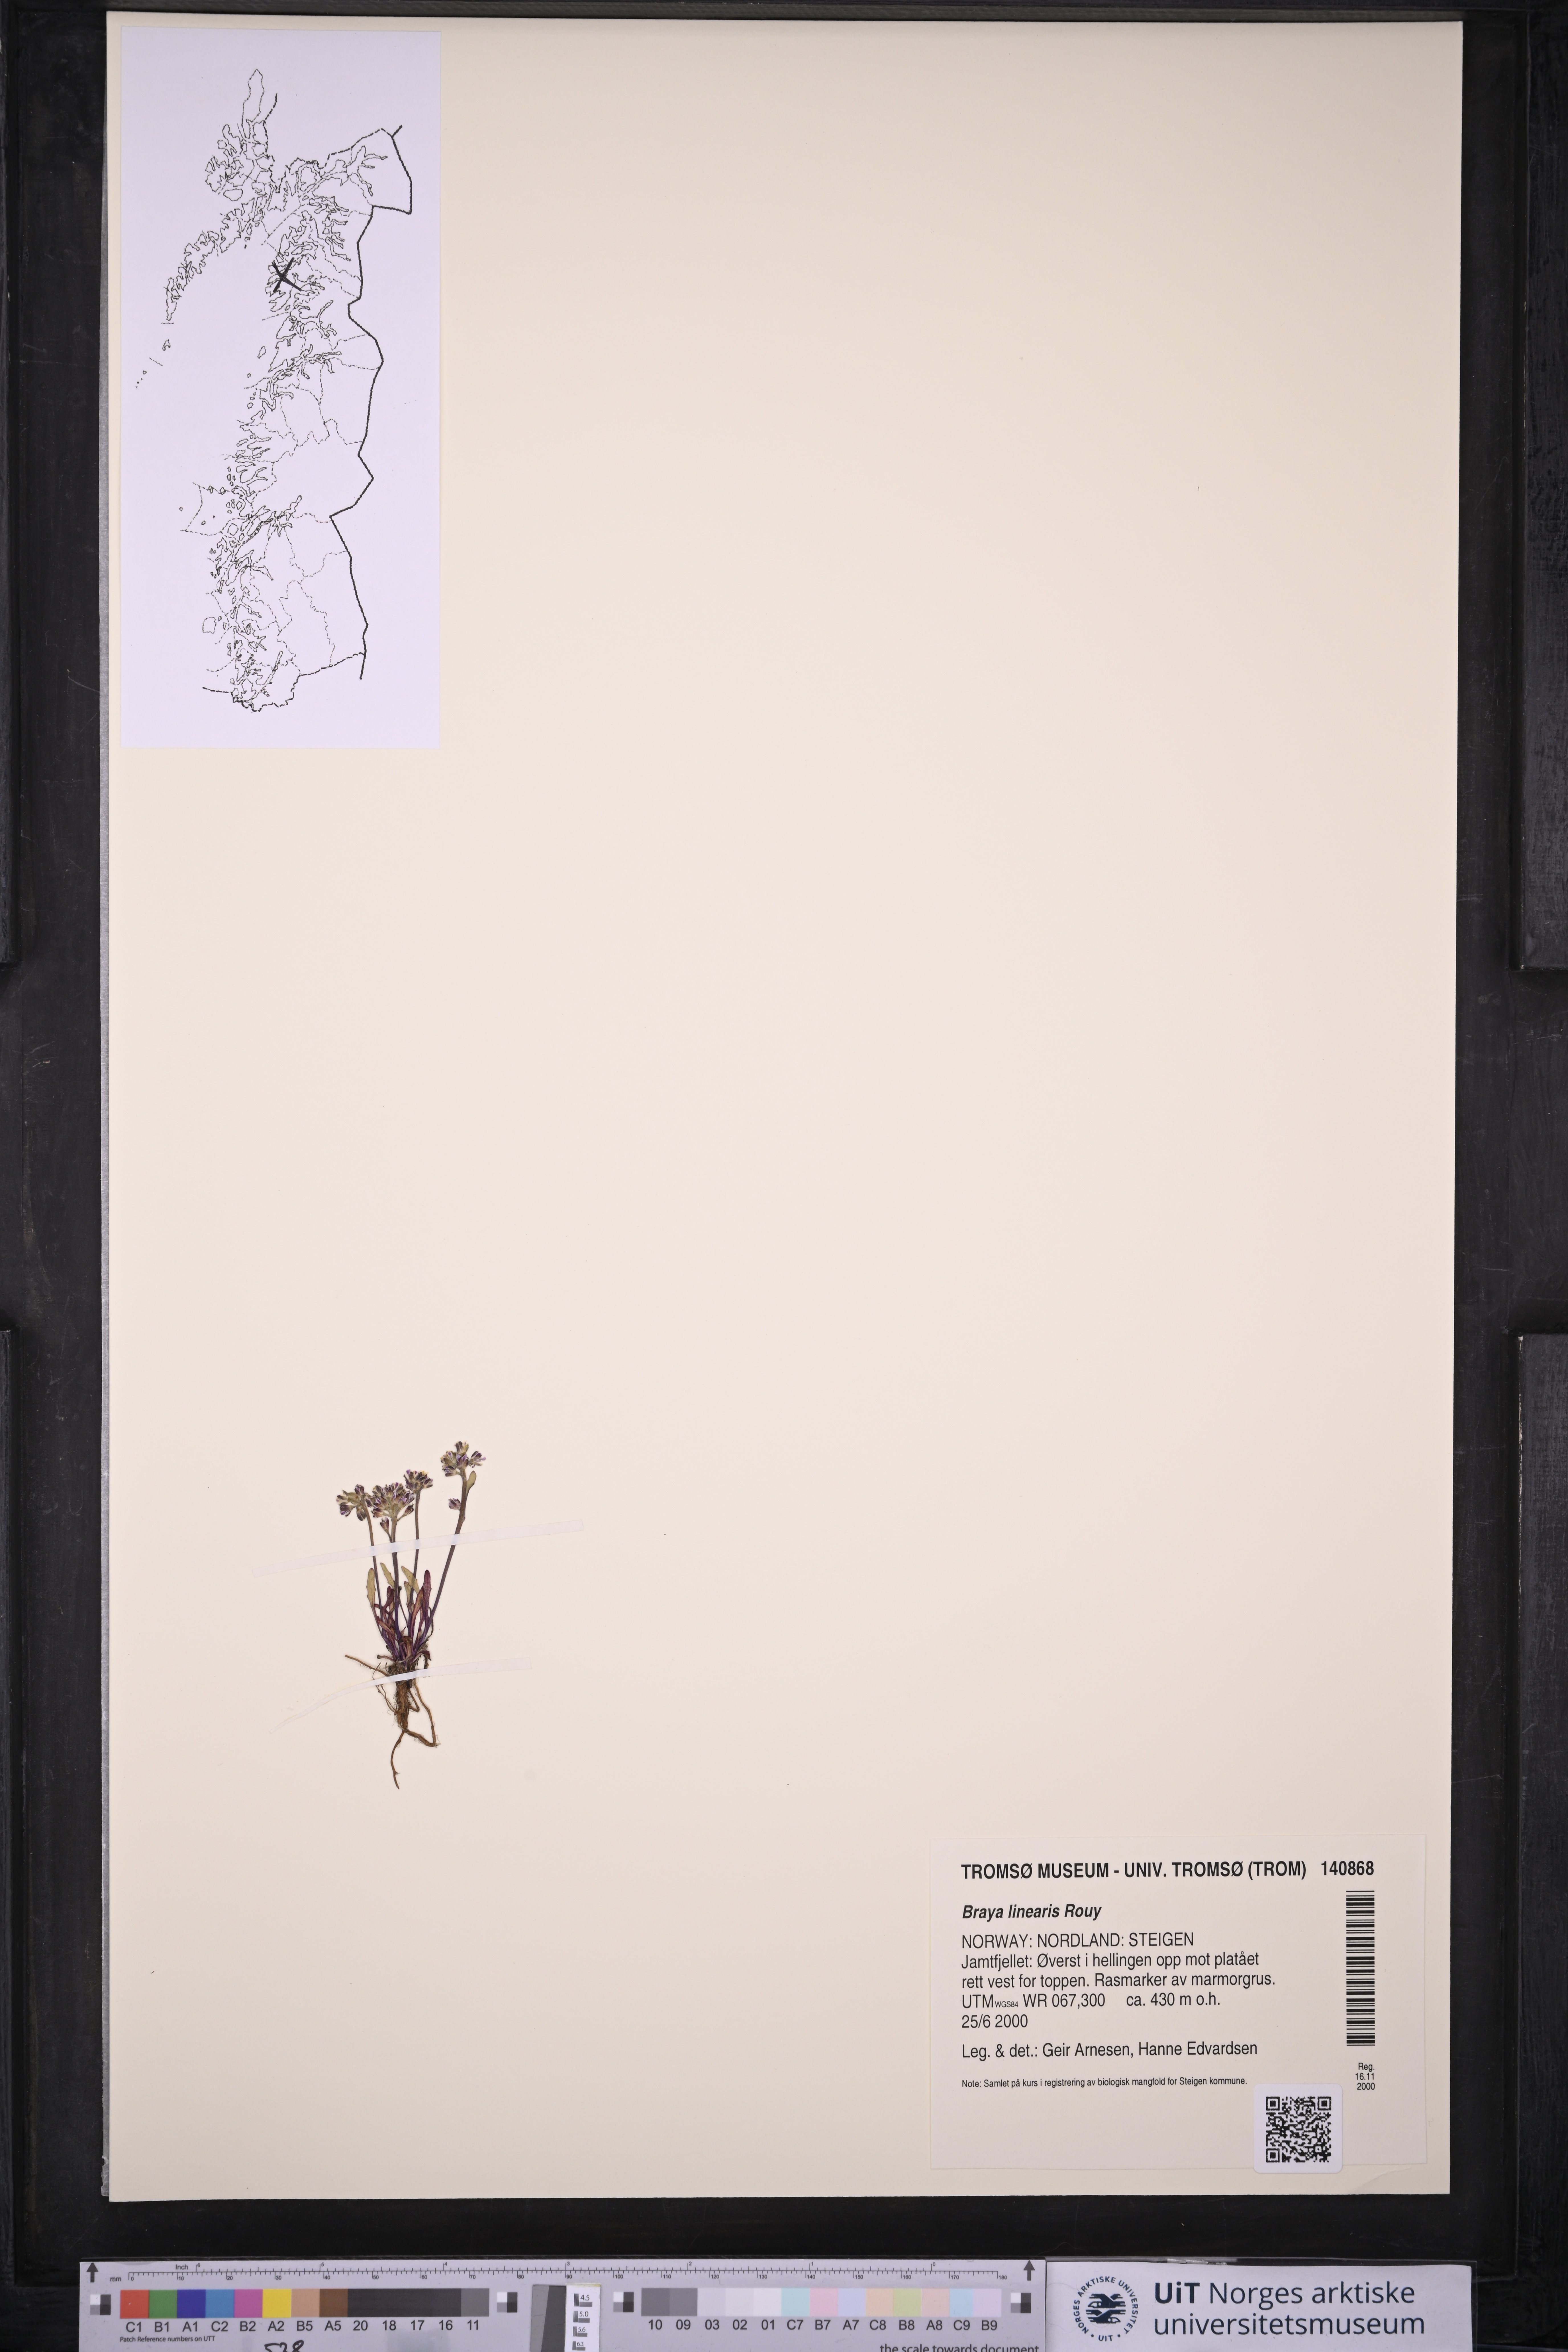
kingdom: Plantae
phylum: Tracheophyta
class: Magnoliopsida
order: Brassicales
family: Brassicaceae
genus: Braya
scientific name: Braya linearis
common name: Narrow-fruit braya
